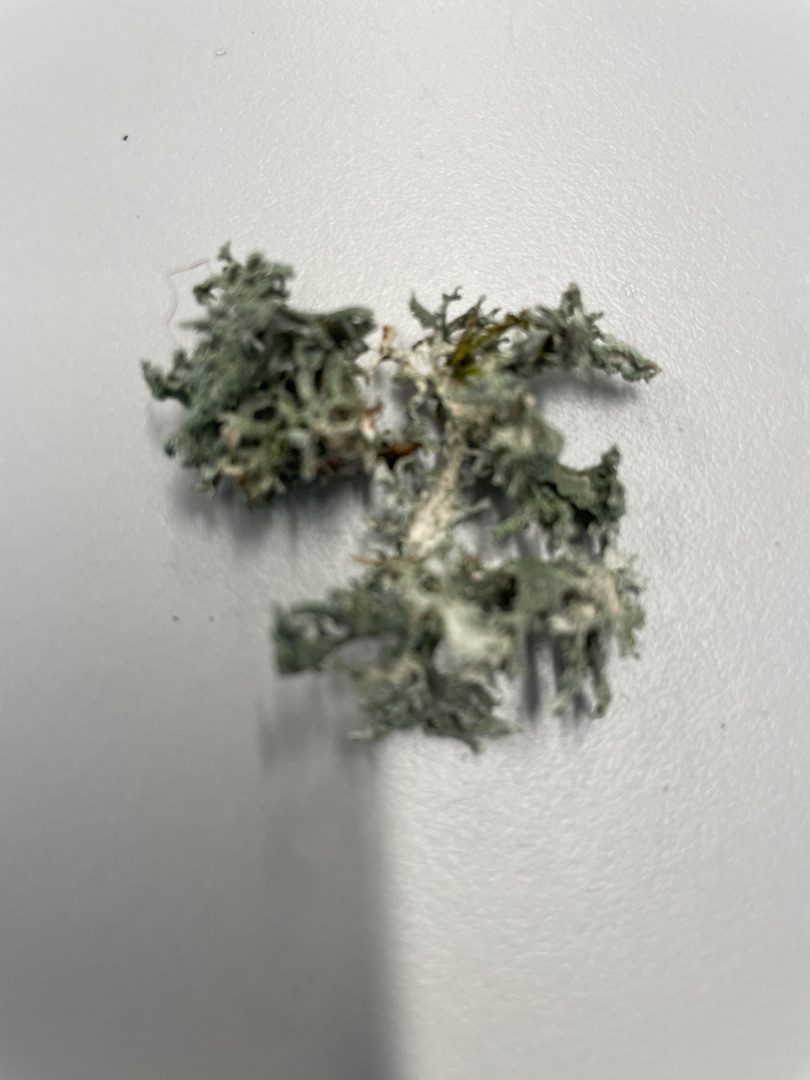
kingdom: Fungi
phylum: Ascomycota
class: Lecanoromycetes
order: Lecanorales
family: Parmeliaceae
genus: Evernia
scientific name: Evernia prunastri
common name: Almindelig slåenlav
